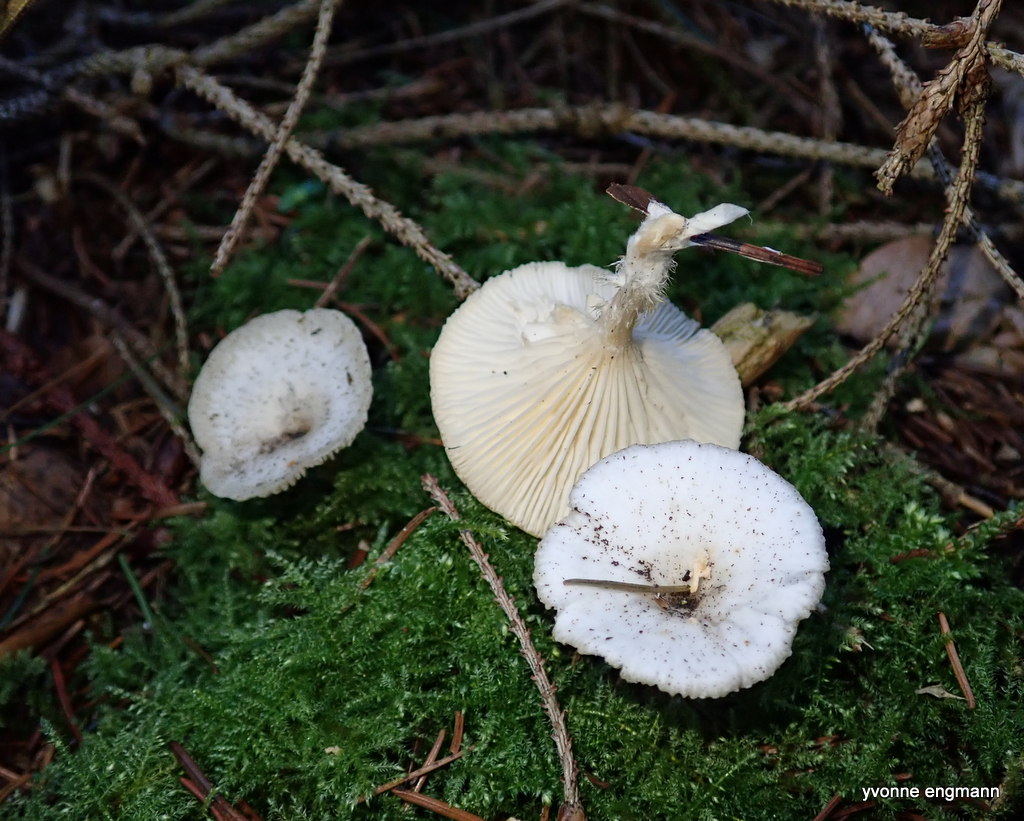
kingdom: Fungi
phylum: Basidiomycota
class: Agaricomycetes
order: Agaricales
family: Tricholomataceae
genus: Clitocybe
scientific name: Clitocybe
